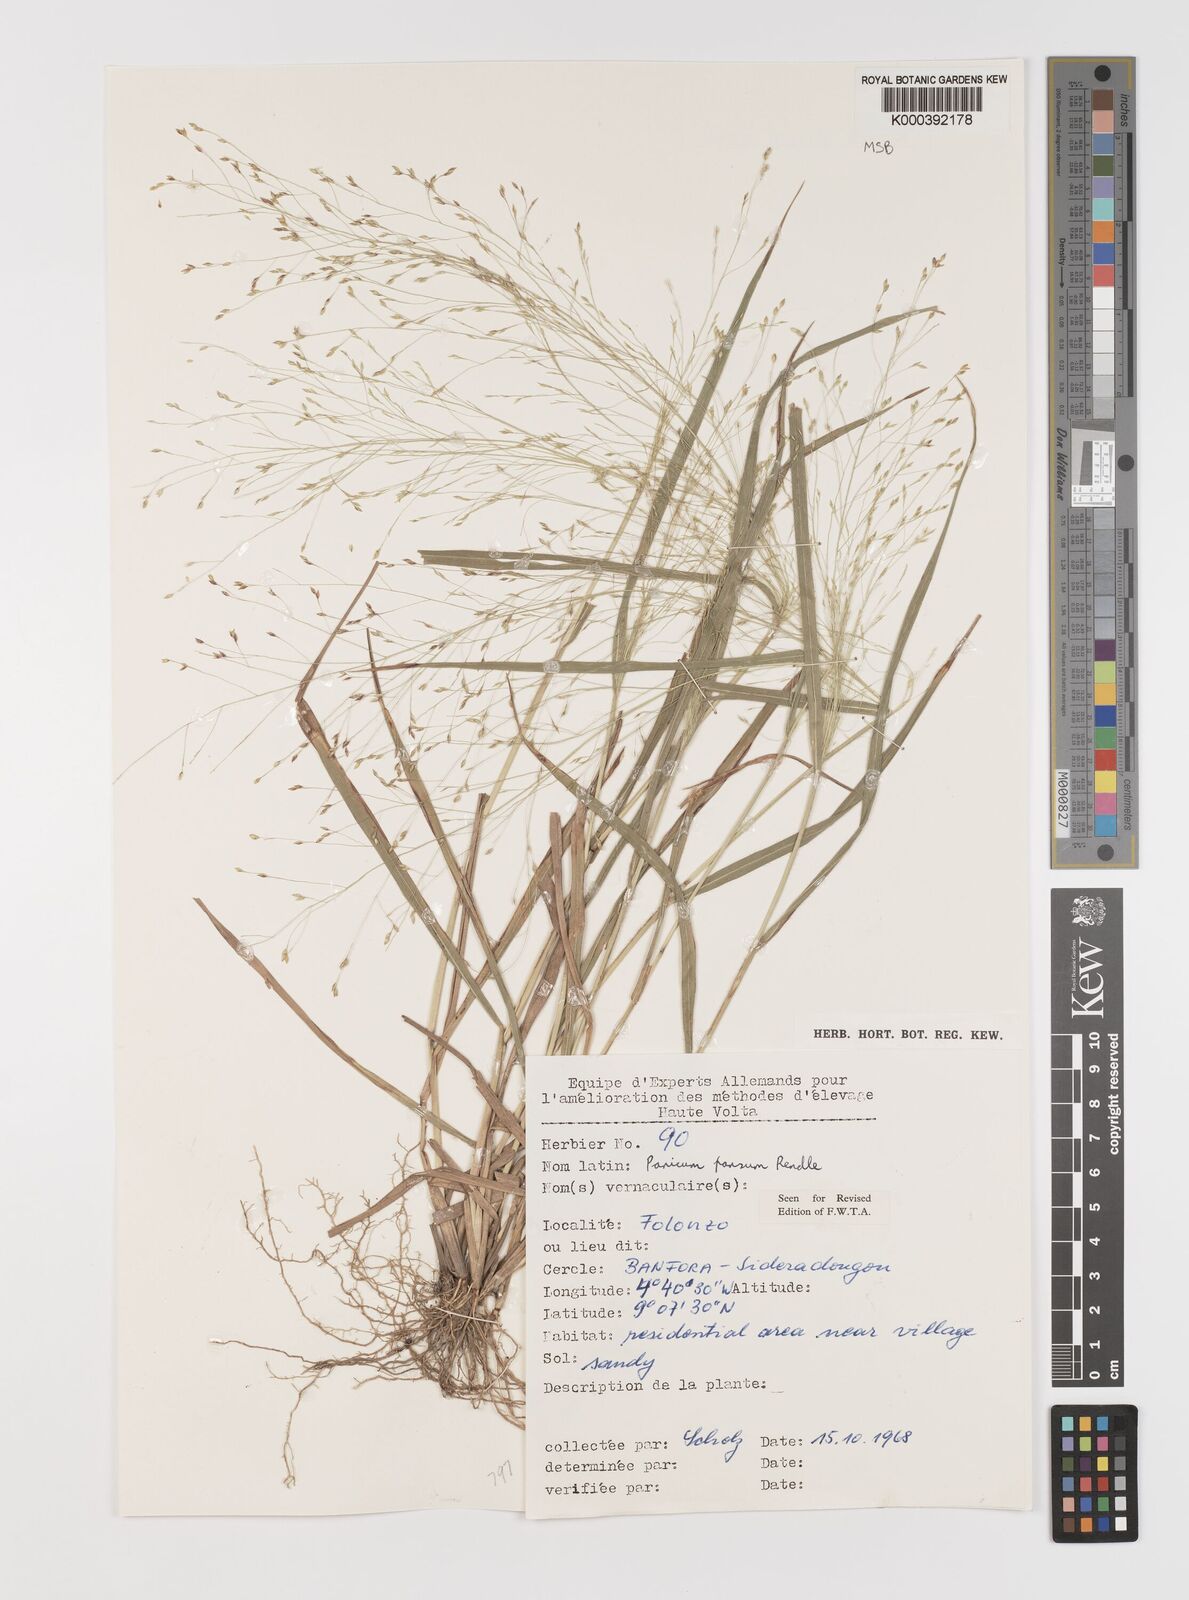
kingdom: Plantae
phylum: Tracheophyta
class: Liliopsida
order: Poales
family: Poaceae
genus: Panicum
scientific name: Panicum pansum
